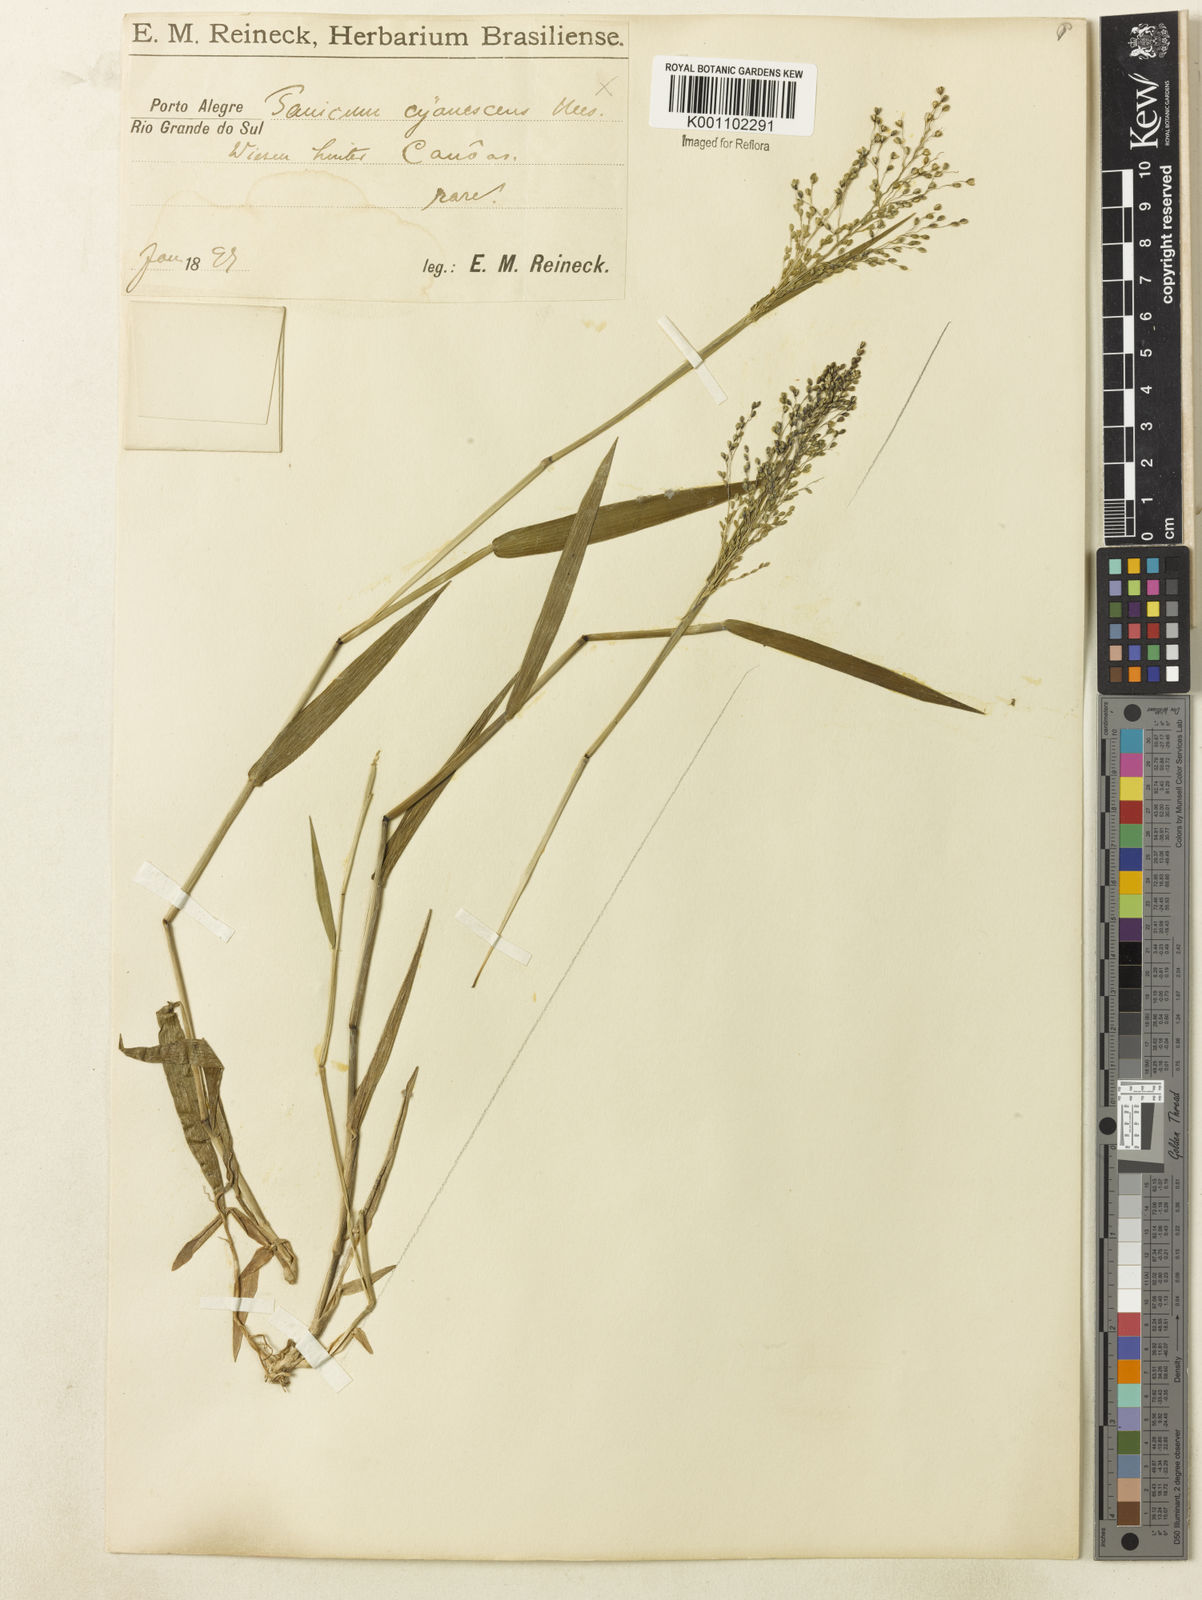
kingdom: Plantae
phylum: Tracheophyta
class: Liliopsida
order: Poales
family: Poaceae
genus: Dichanthelium
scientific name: Dichanthelium stigmosum
